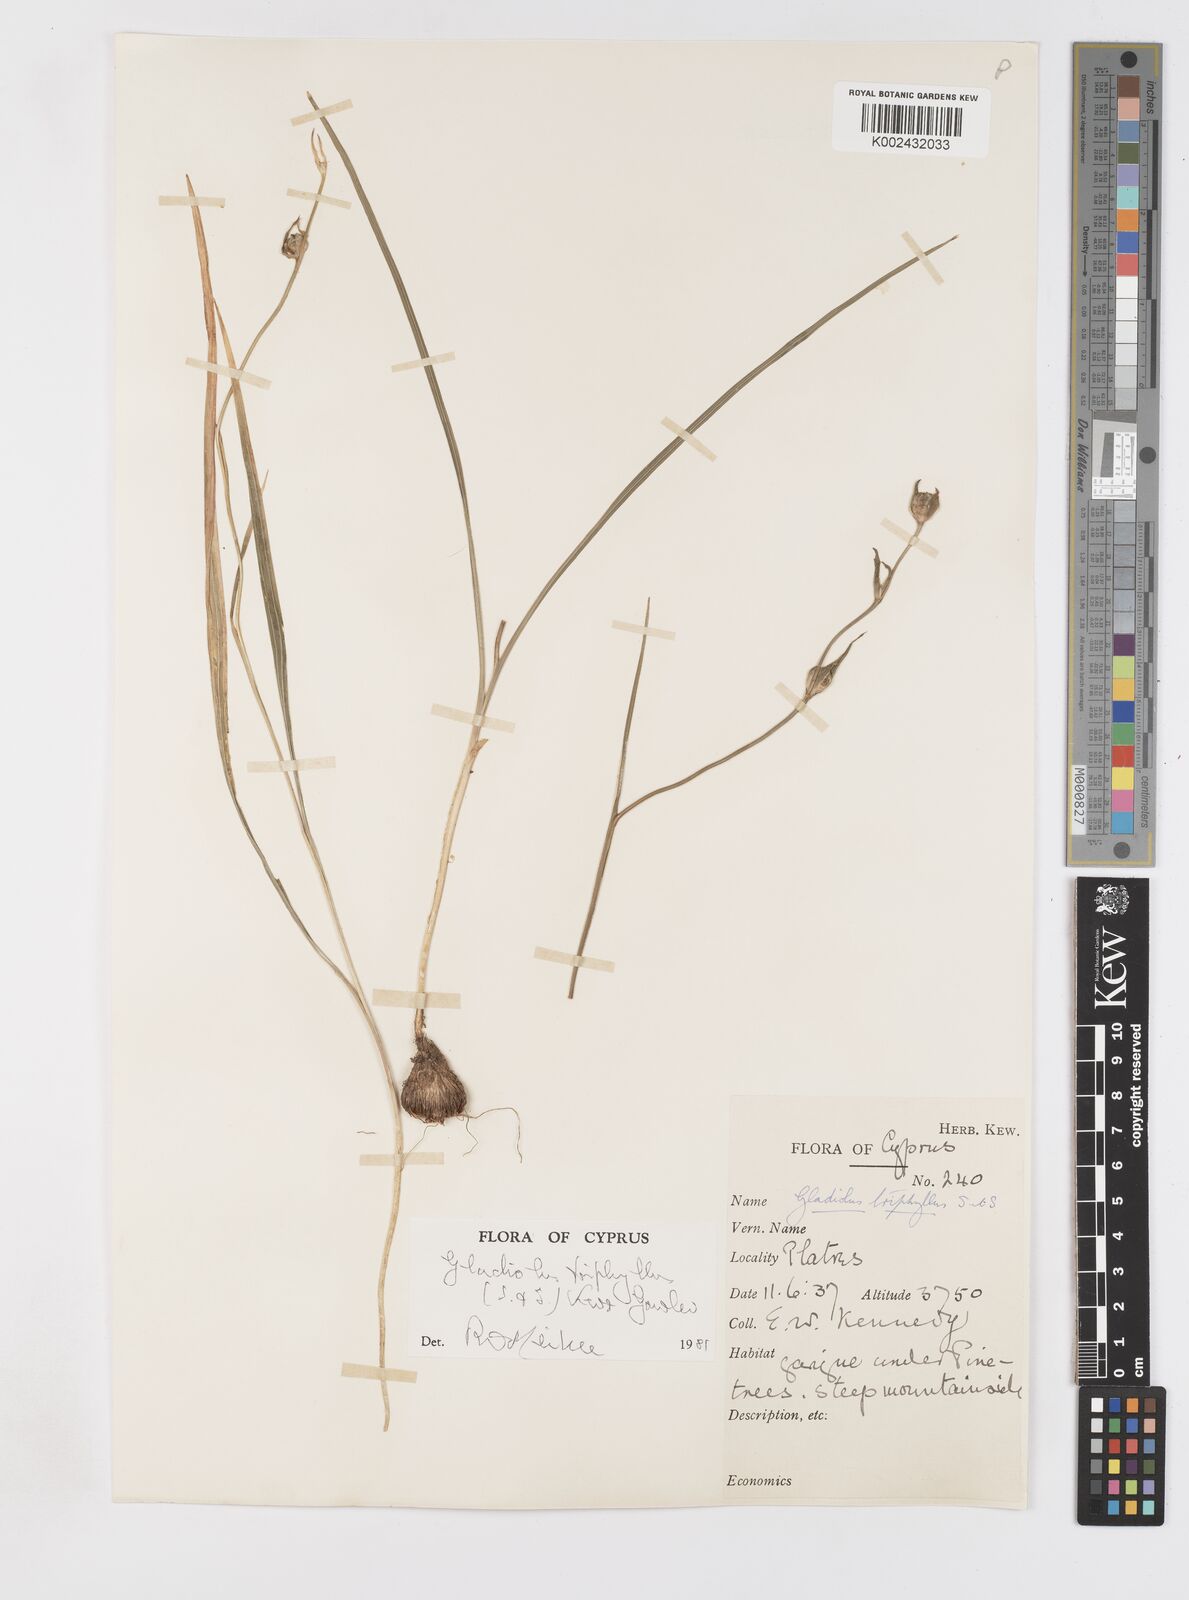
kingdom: Plantae
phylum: Tracheophyta
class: Liliopsida
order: Asparagales
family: Iridaceae
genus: Gladiolus
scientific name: Gladiolus triphyllus
